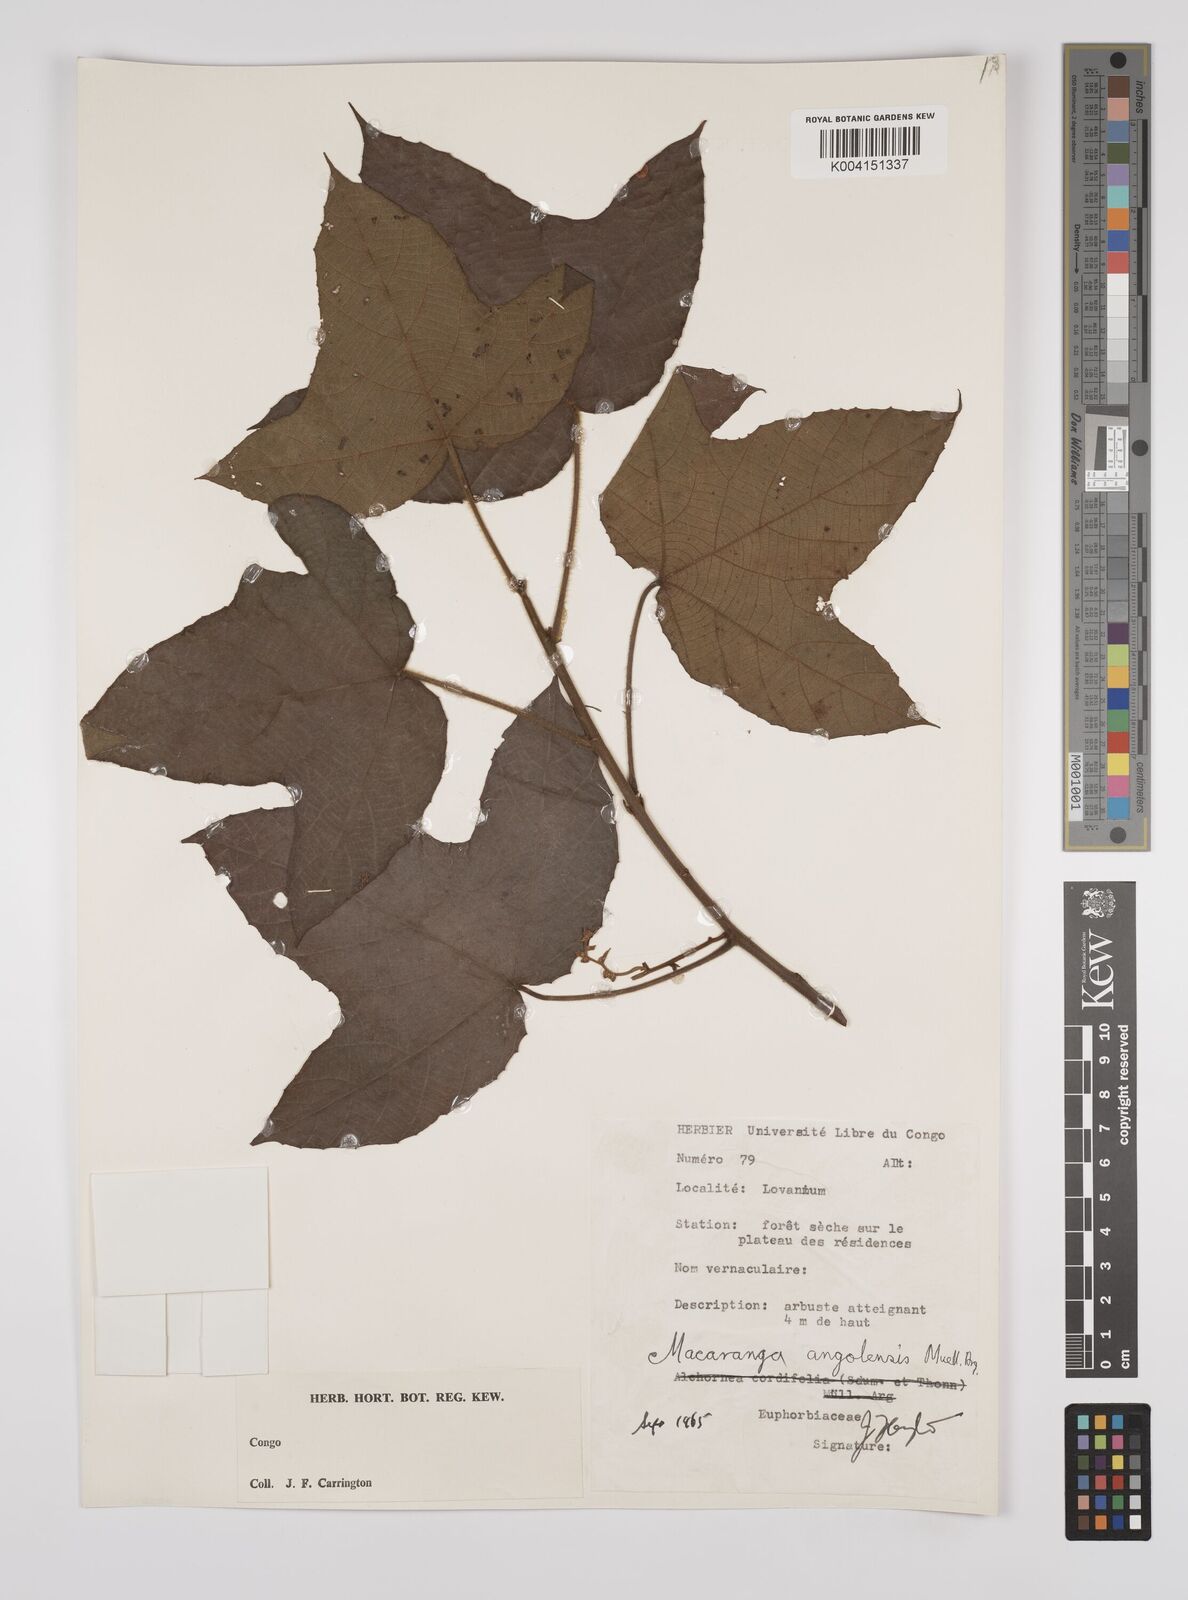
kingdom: Plantae
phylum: Tracheophyta
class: Magnoliopsida
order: Malpighiales
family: Euphorbiaceae
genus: Macaranga
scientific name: Macaranga angolensis
